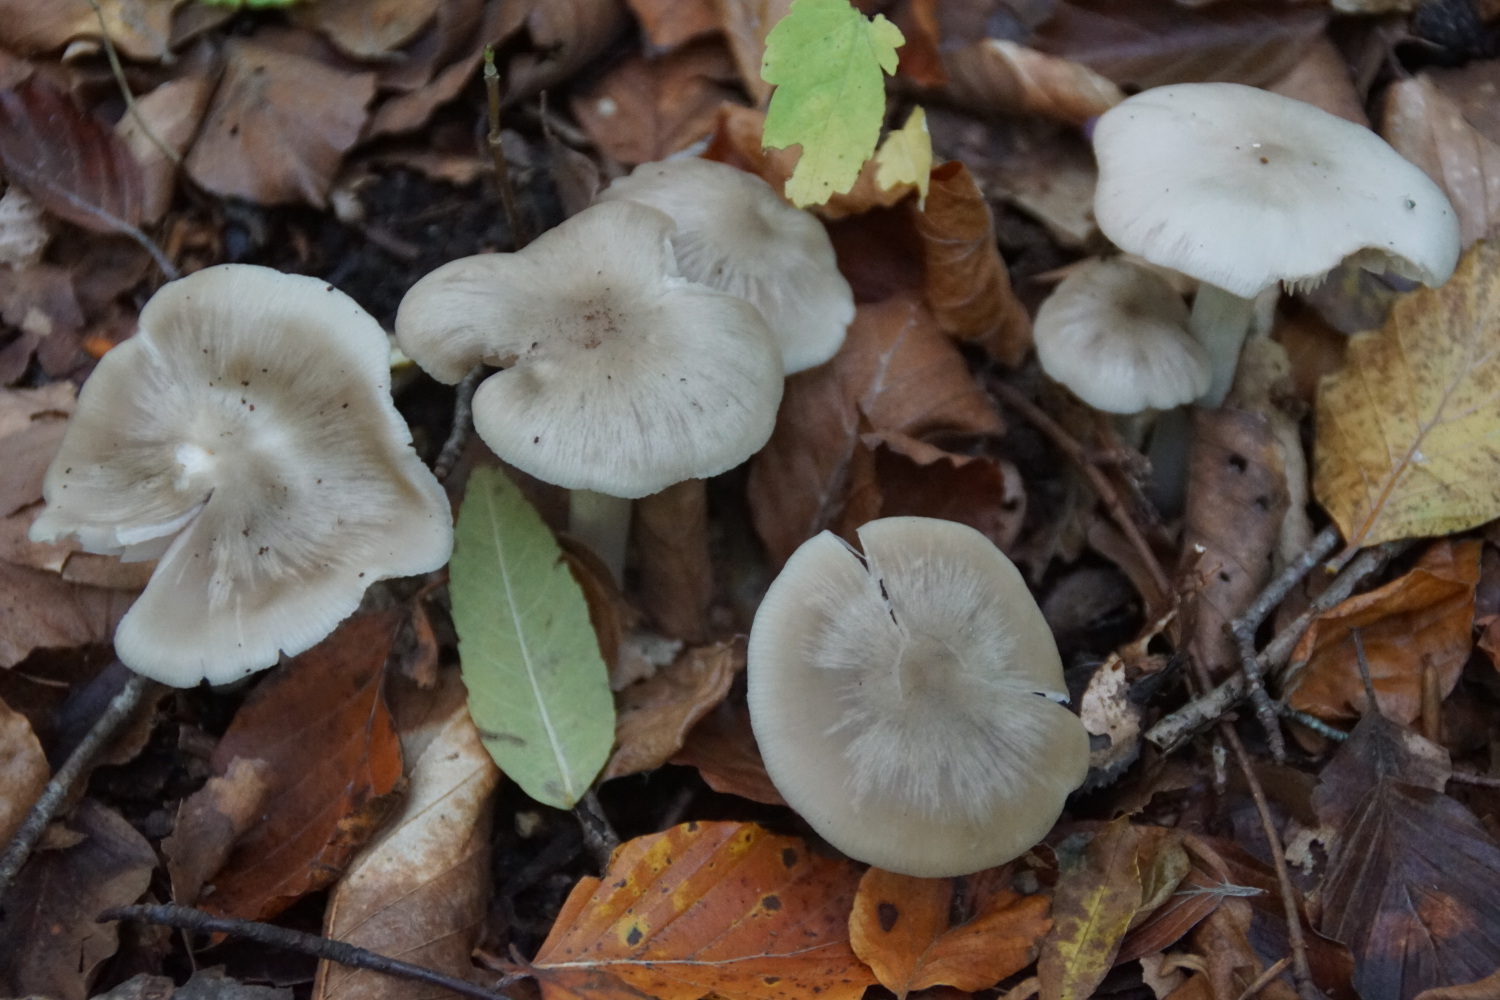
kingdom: Fungi
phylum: Basidiomycota
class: Agaricomycetes
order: Agaricales
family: Entolomataceae
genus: Entoloma
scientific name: Entoloma
